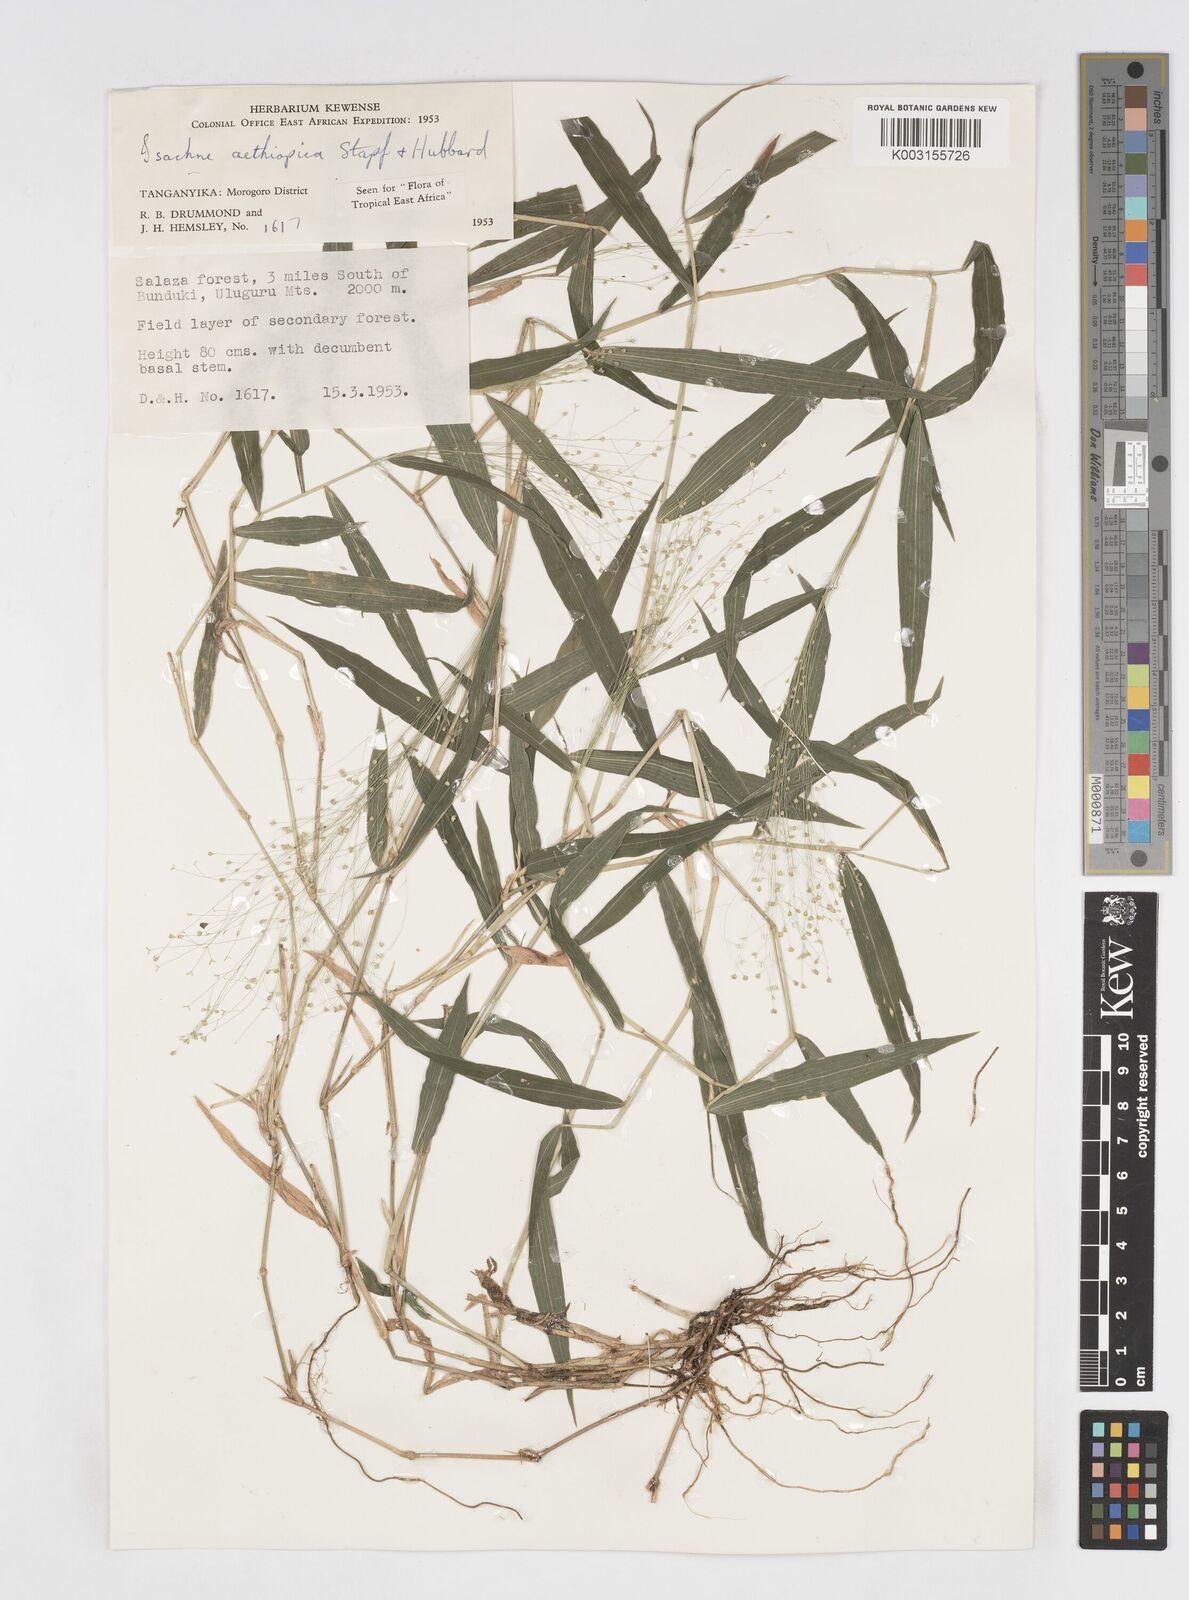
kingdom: Plantae
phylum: Tracheophyta
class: Liliopsida
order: Poales
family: Poaceae
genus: Isachne
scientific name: Isachne mauritiana
